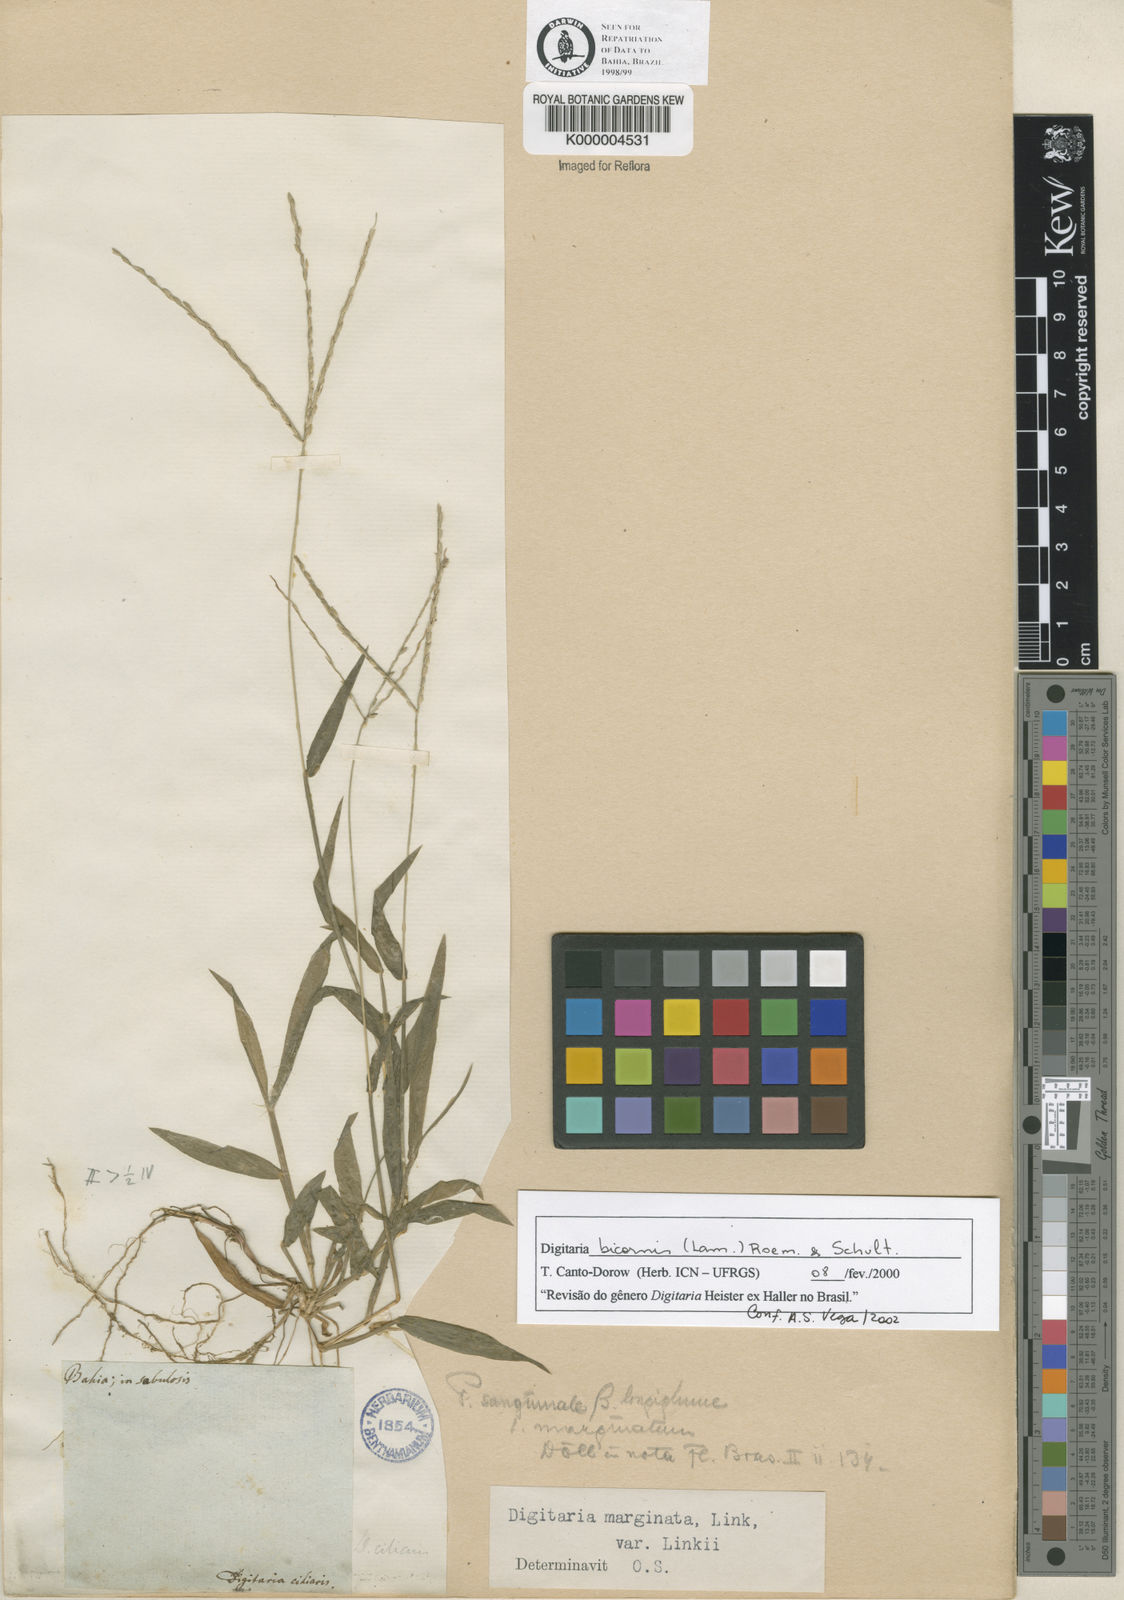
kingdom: Plantae
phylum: Tracheophyta
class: Liliopsida
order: Poales
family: Poaceae
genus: Digitaria
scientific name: Digitaria ciliaris
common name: Tropical finger-grass
